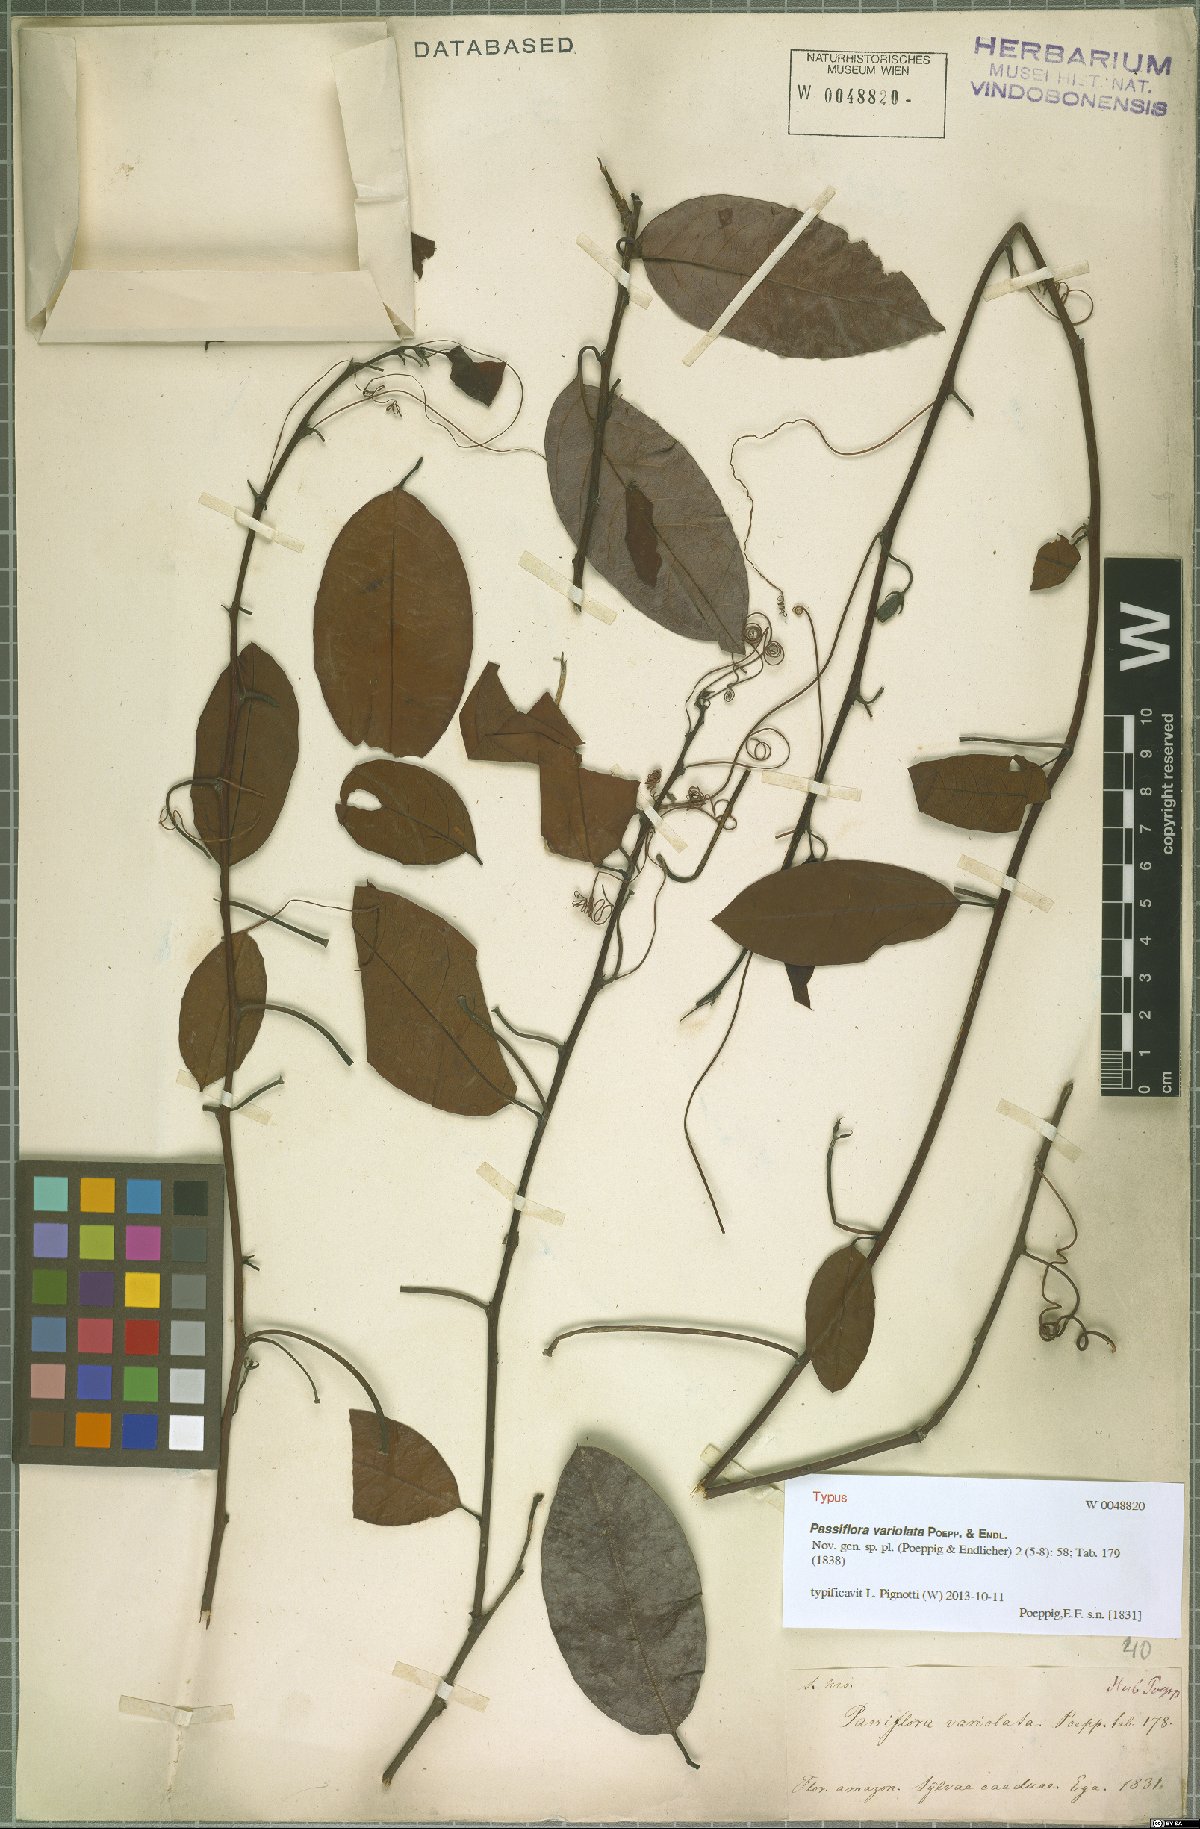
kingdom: Plantae
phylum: Tracheophyta
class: Magnoliopsida
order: Malpighiales
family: Passifloraceae
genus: Passiflora
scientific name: Passiflora variolata
